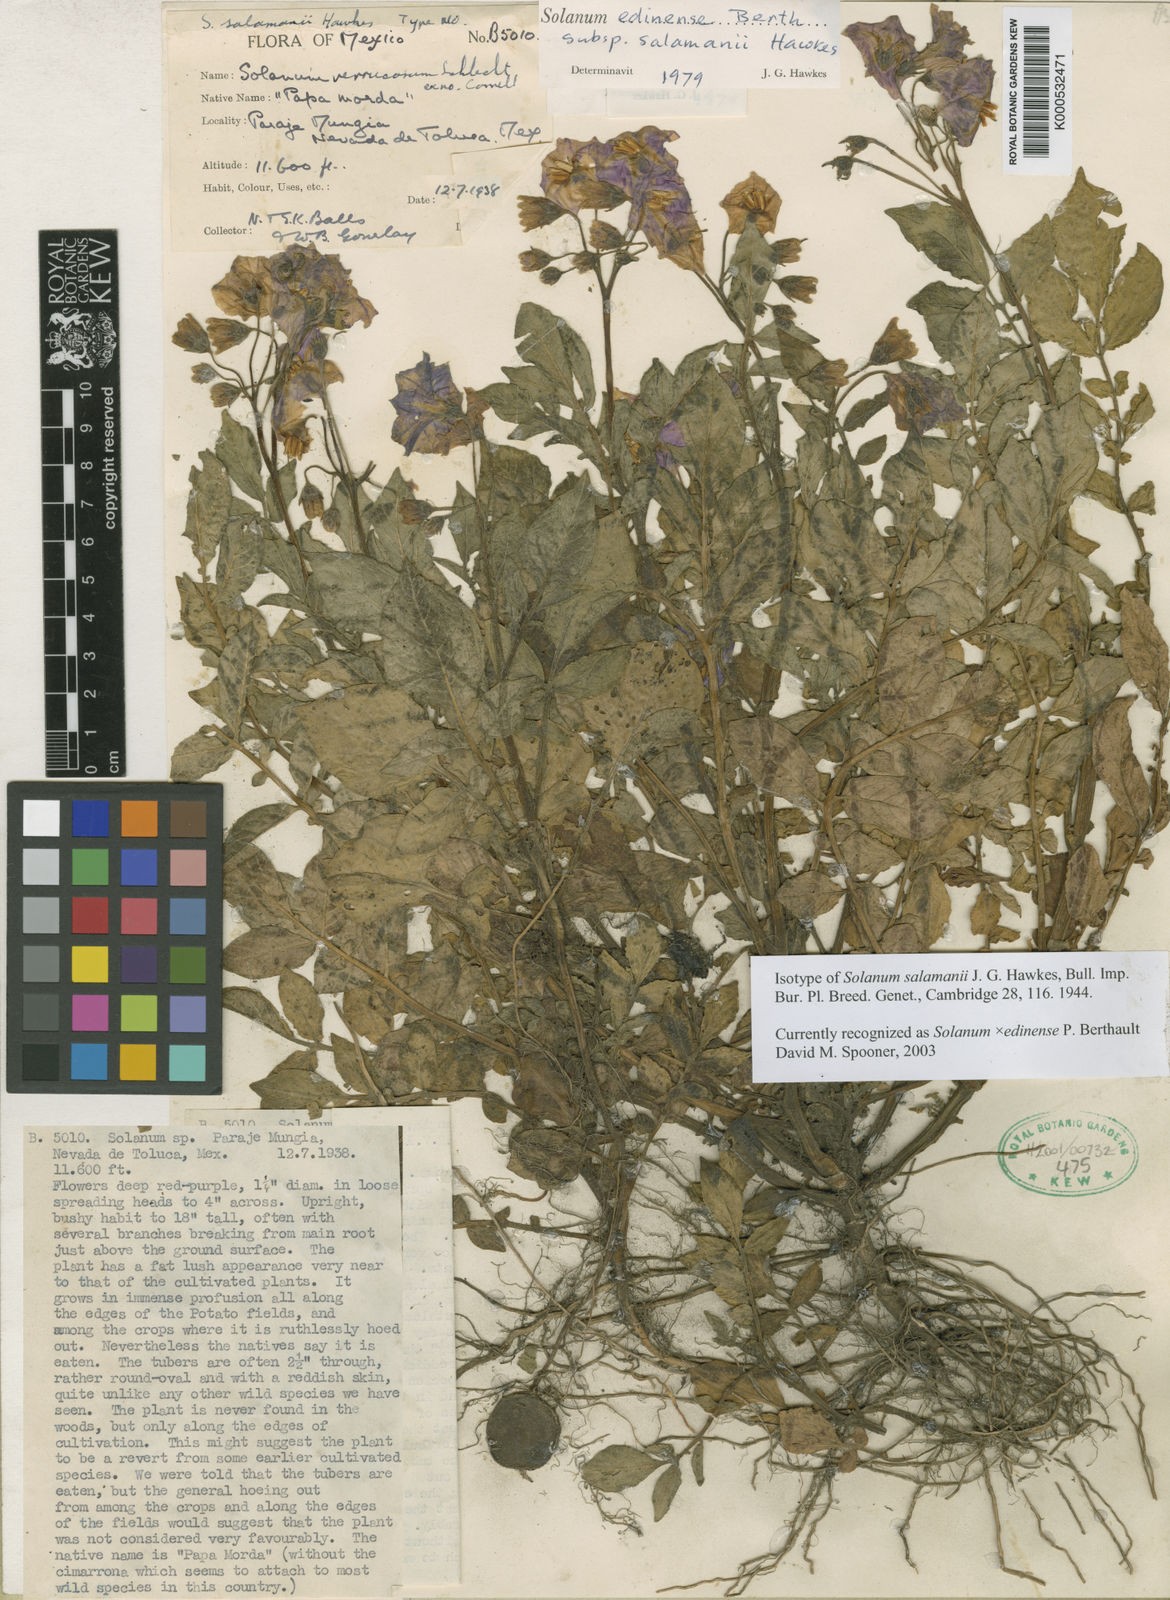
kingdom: Plantae
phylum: Tracheophyta
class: Magnoliopsida
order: Solanales
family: Solanaceae
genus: Solanum
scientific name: Solanum
